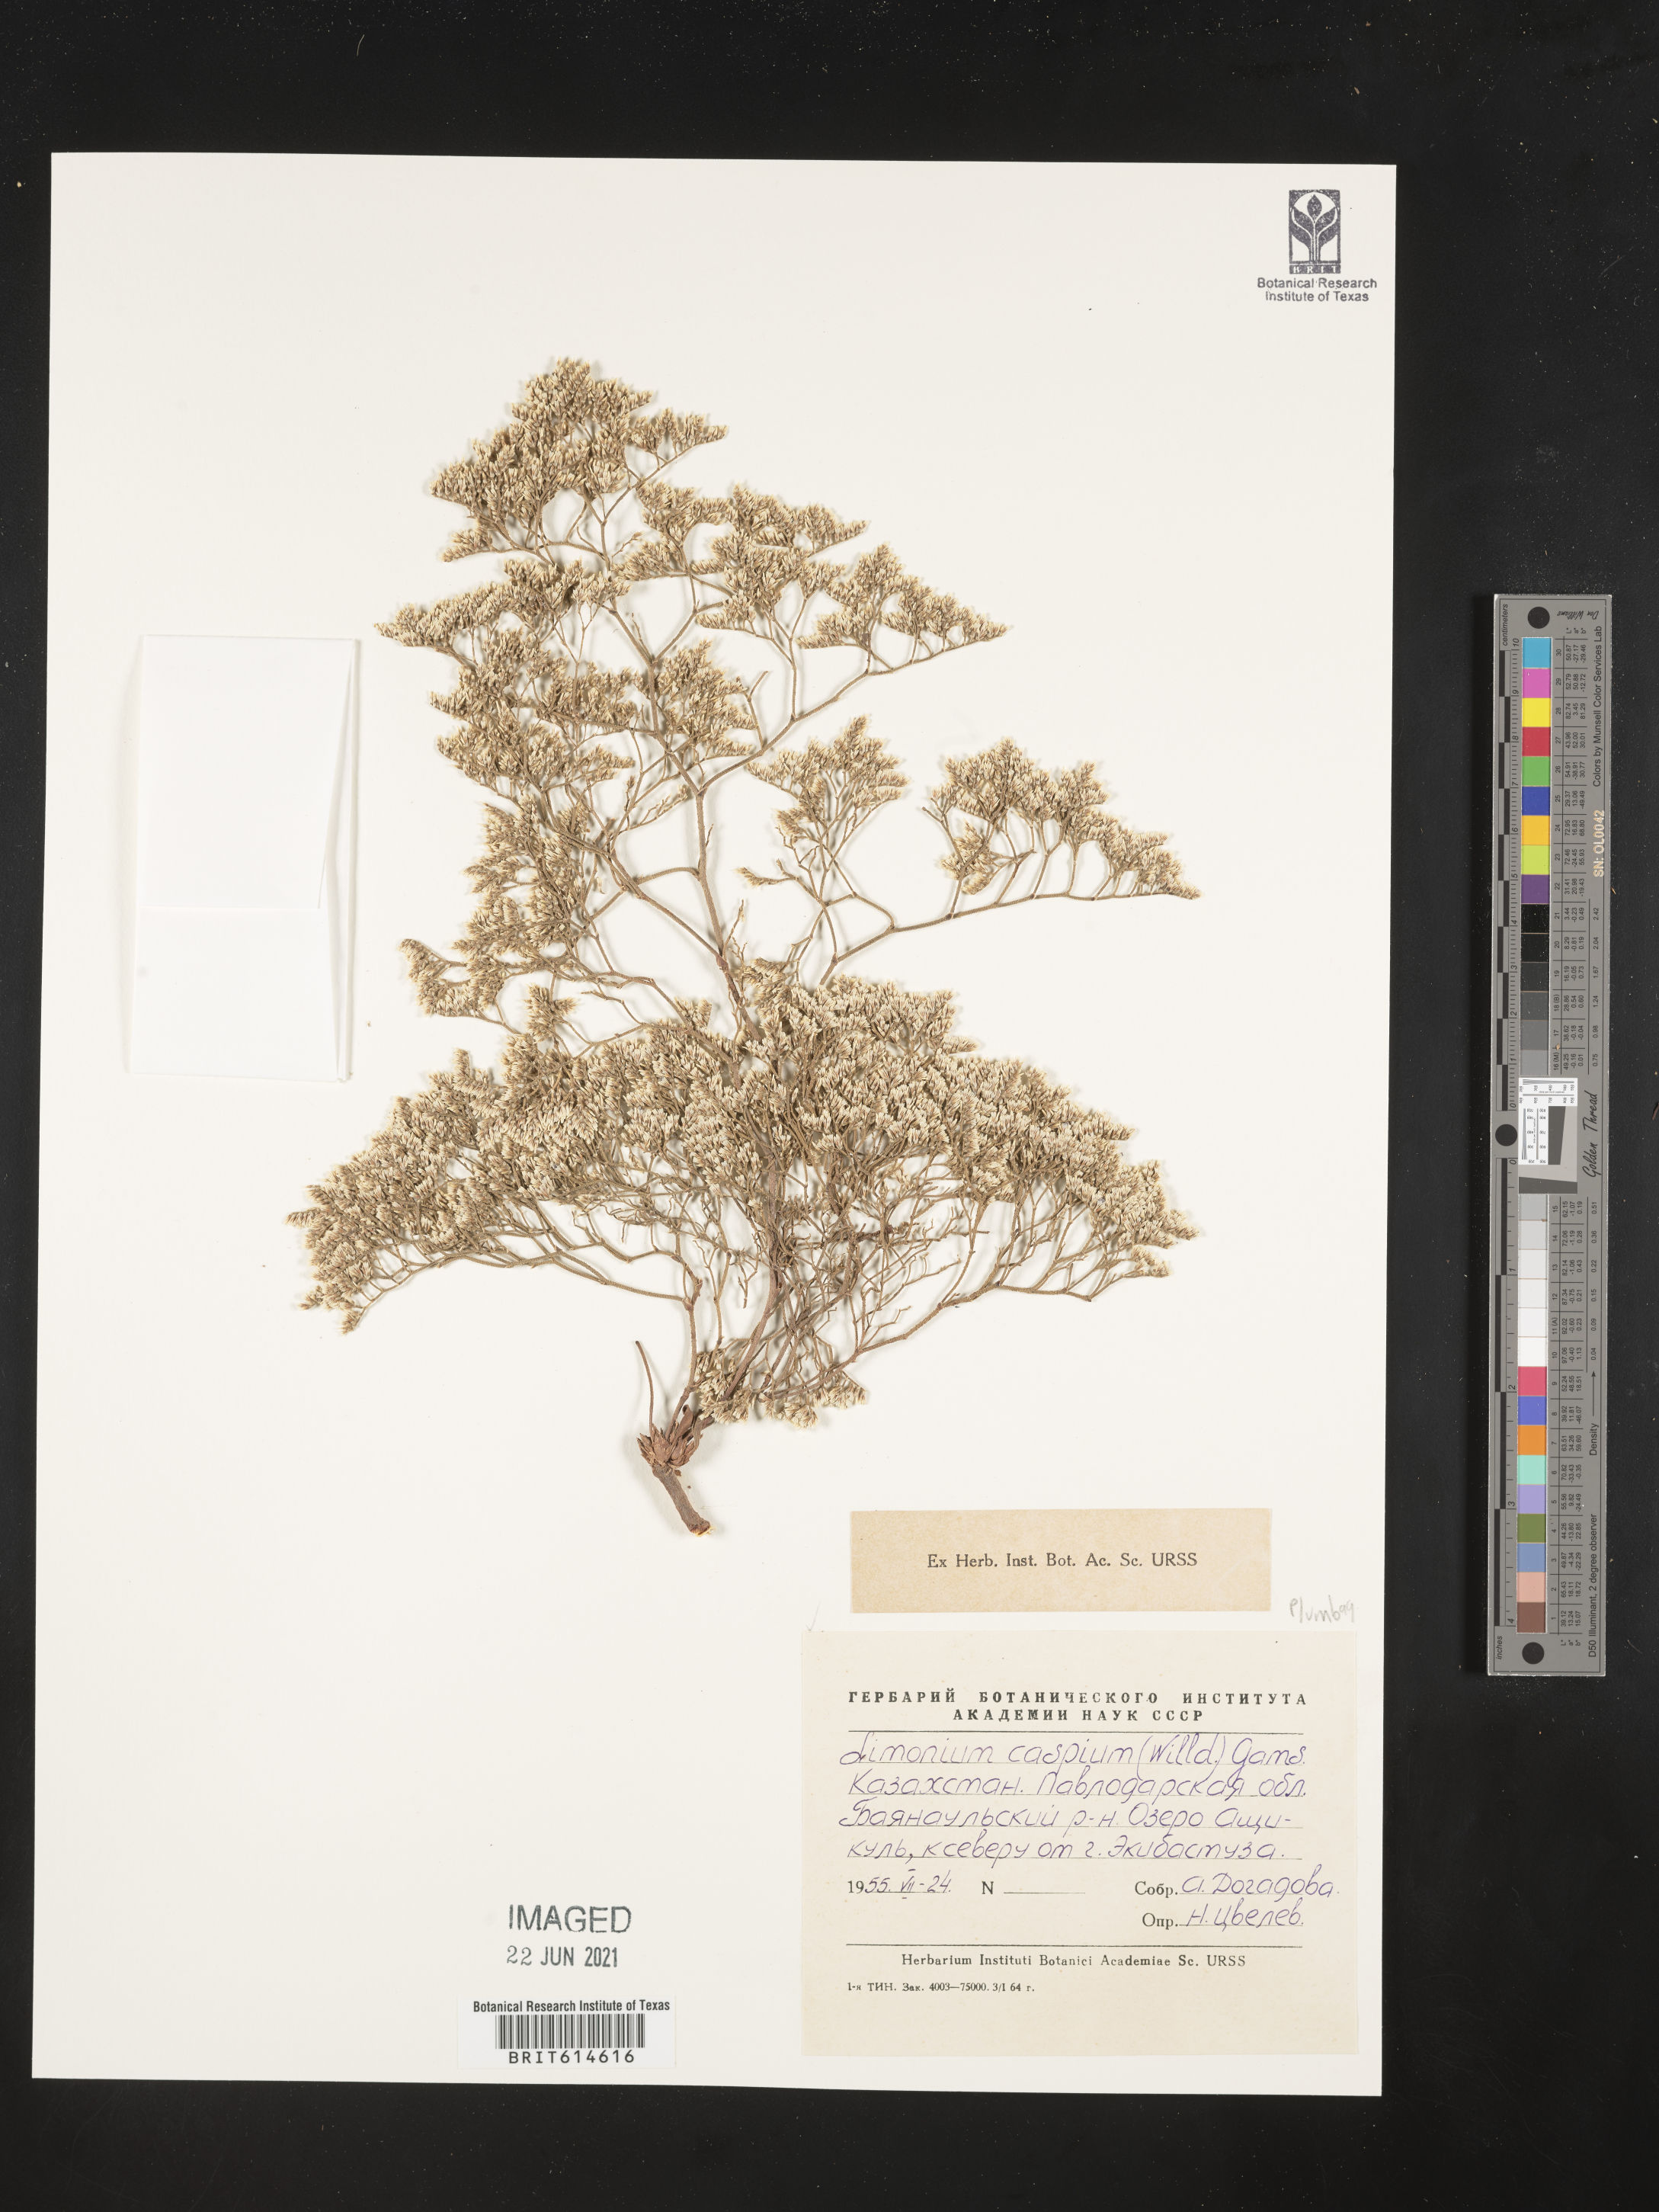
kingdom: Plantae
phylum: Tracheophyta
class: Magnoliopsida
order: Caryophyllales
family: Plumbaginaceae
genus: Limonium
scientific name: Limonium bellidifolium
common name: Matted sea-lavender
